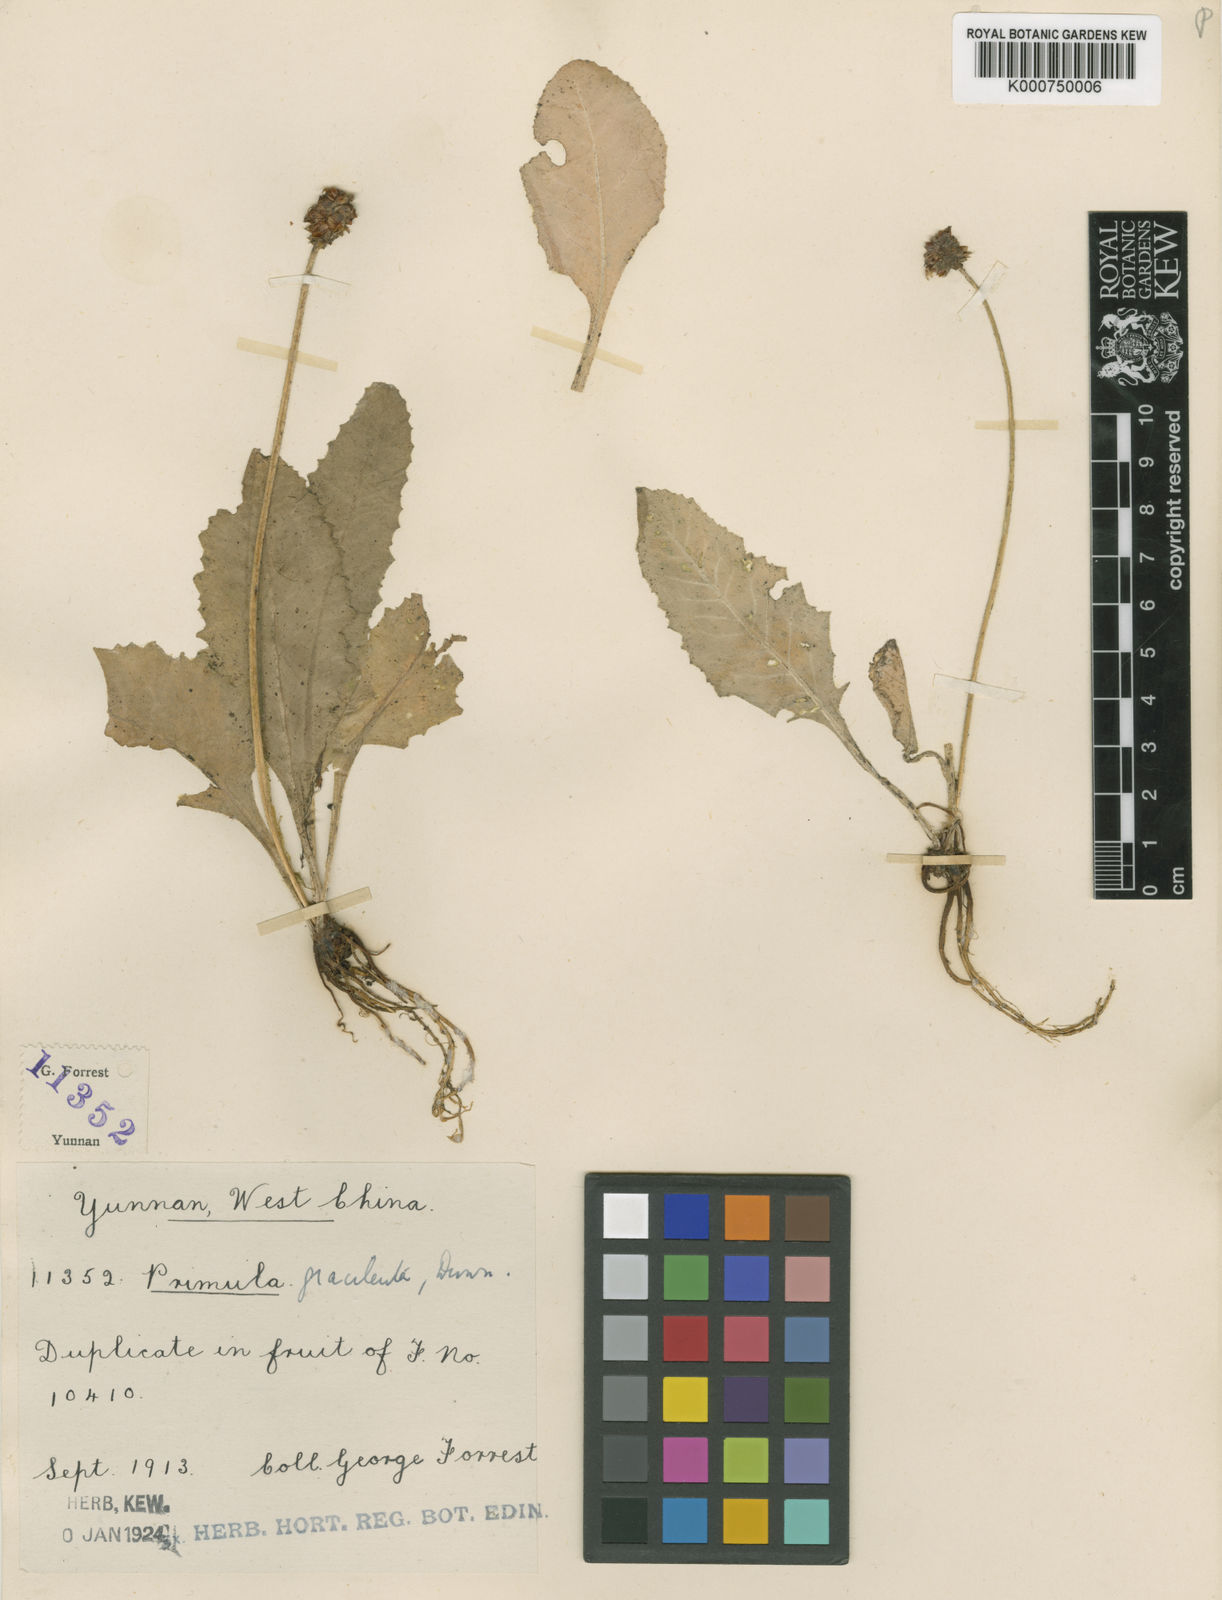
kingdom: Plantae
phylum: Tracheophyta
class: Magnoliopsida
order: Ericales
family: Primulaceae
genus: Primula
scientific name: Primula gracilenta
